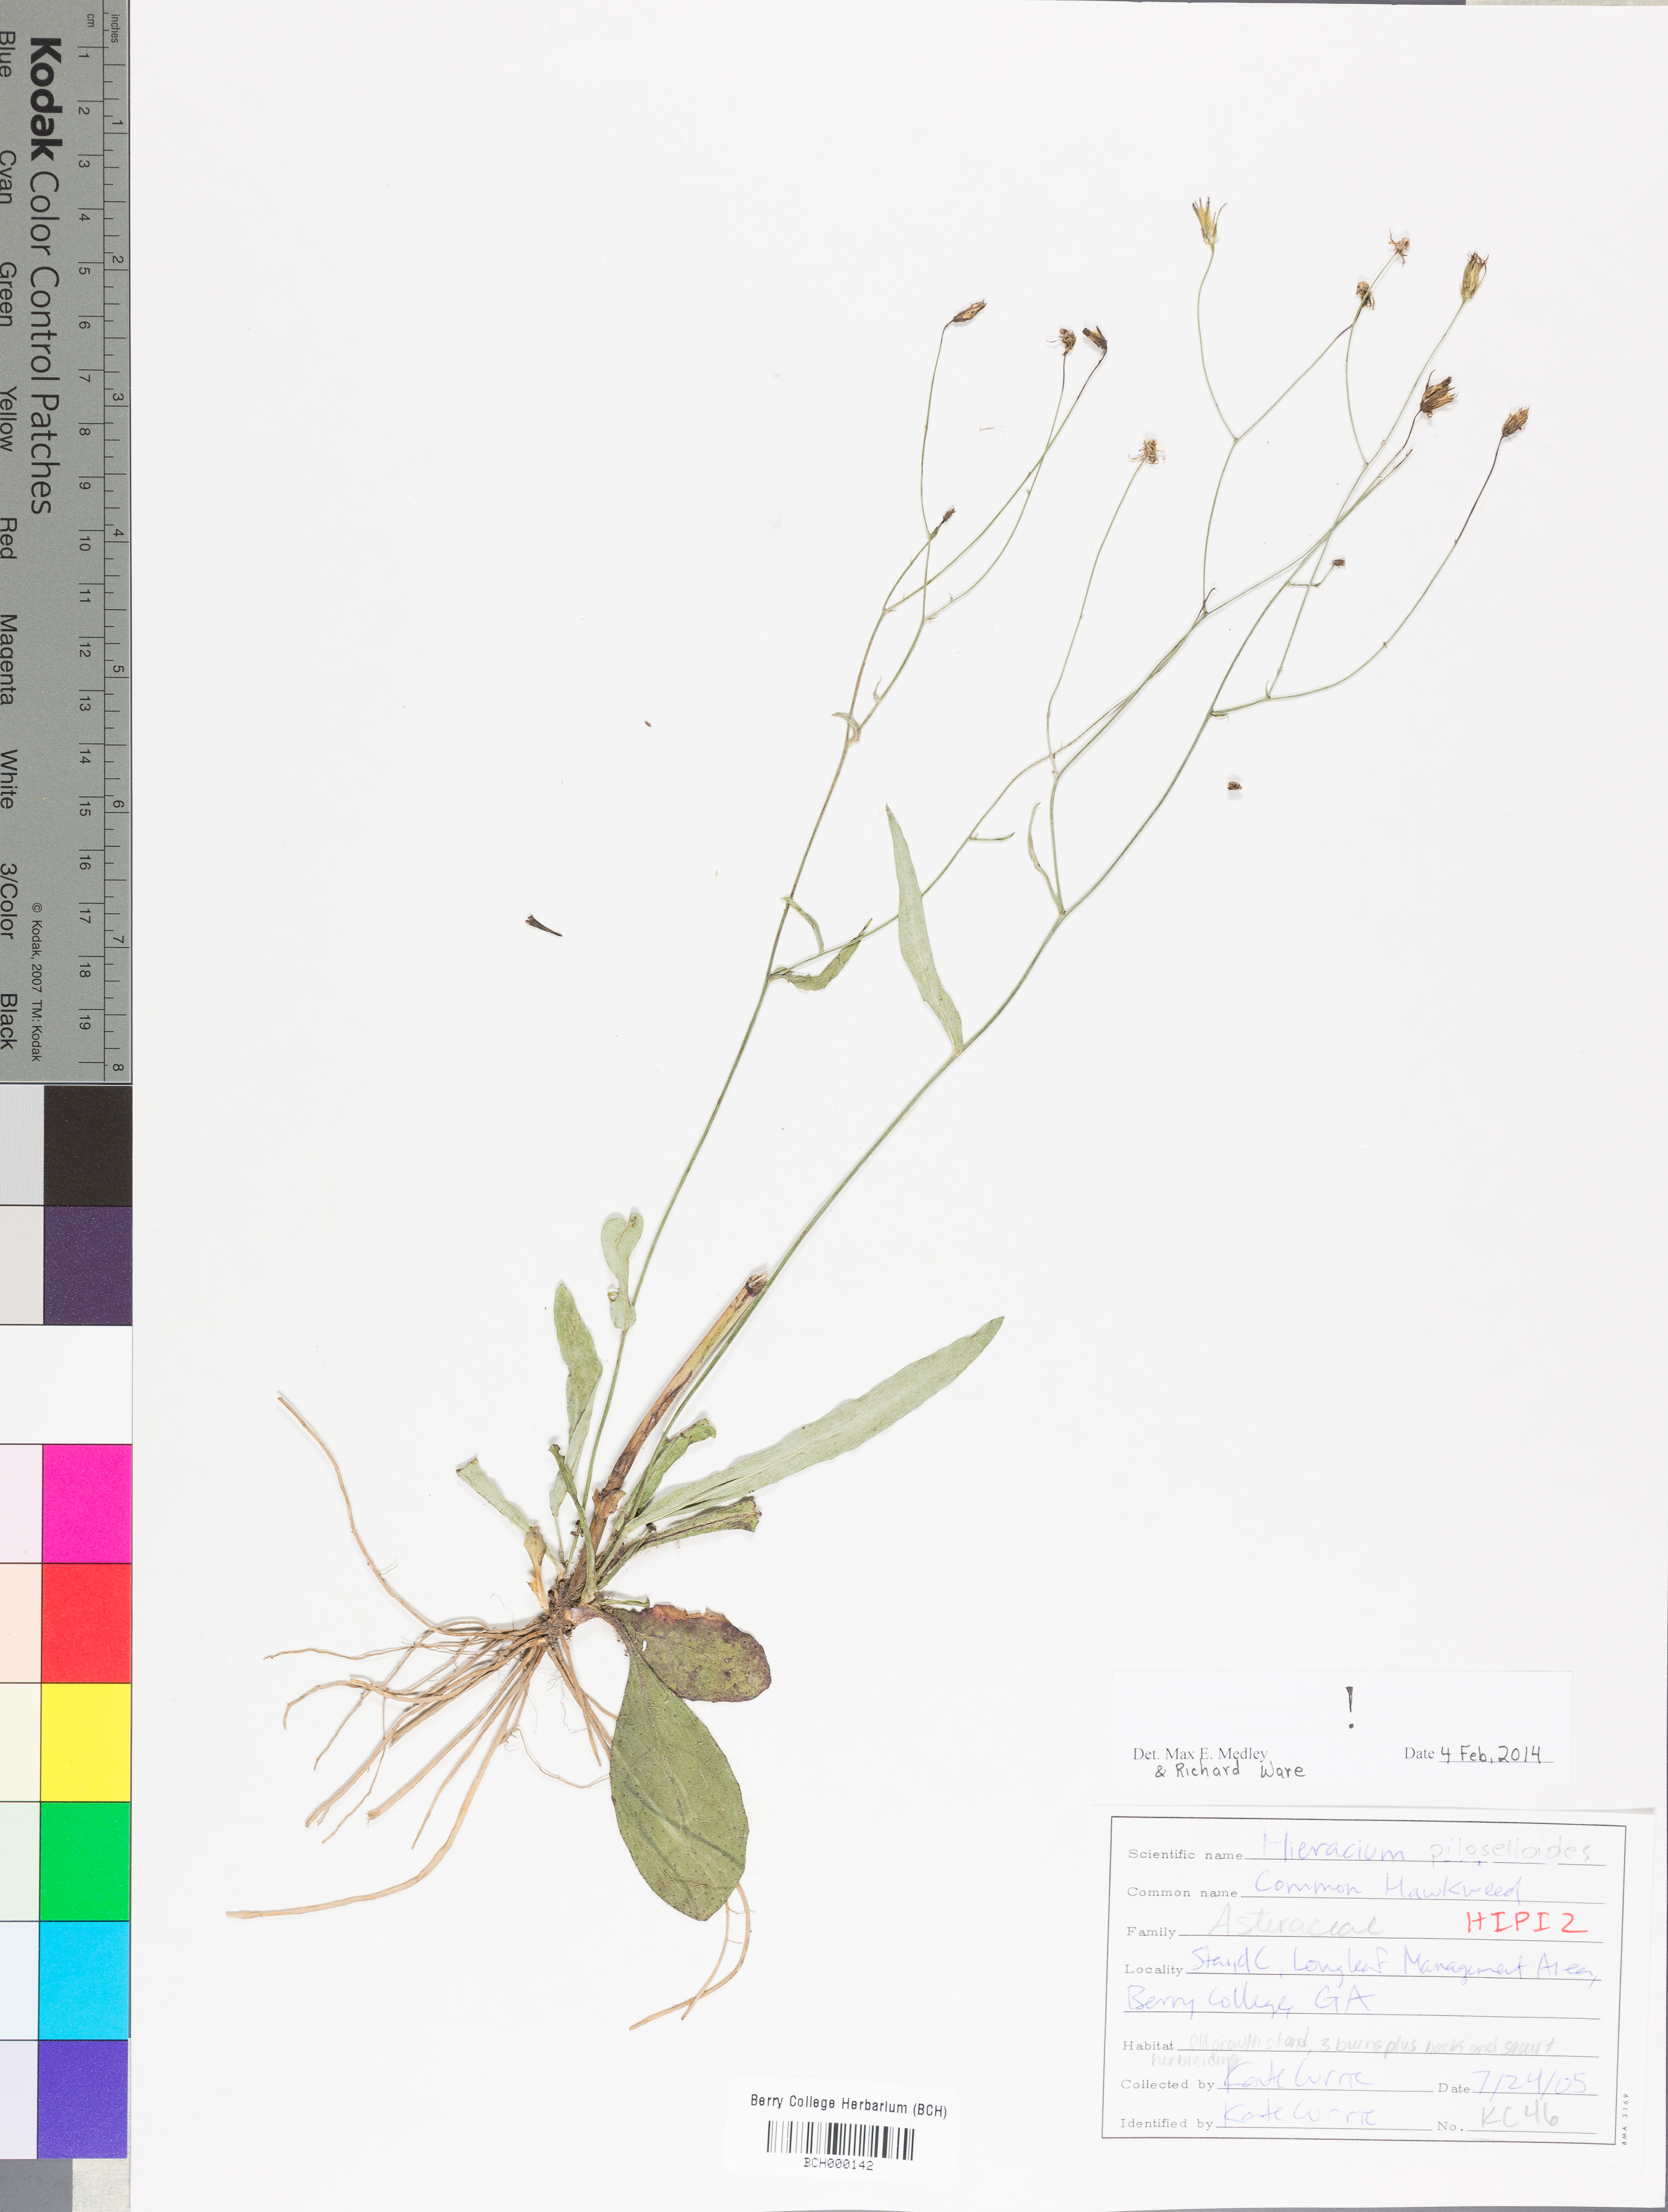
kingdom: Plantae
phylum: Tracheophyta
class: Magnoliopsida
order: Asterales
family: Asteraceae
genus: Pilosella
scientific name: Pilosella piloselloides
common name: Glaucous king-devil
